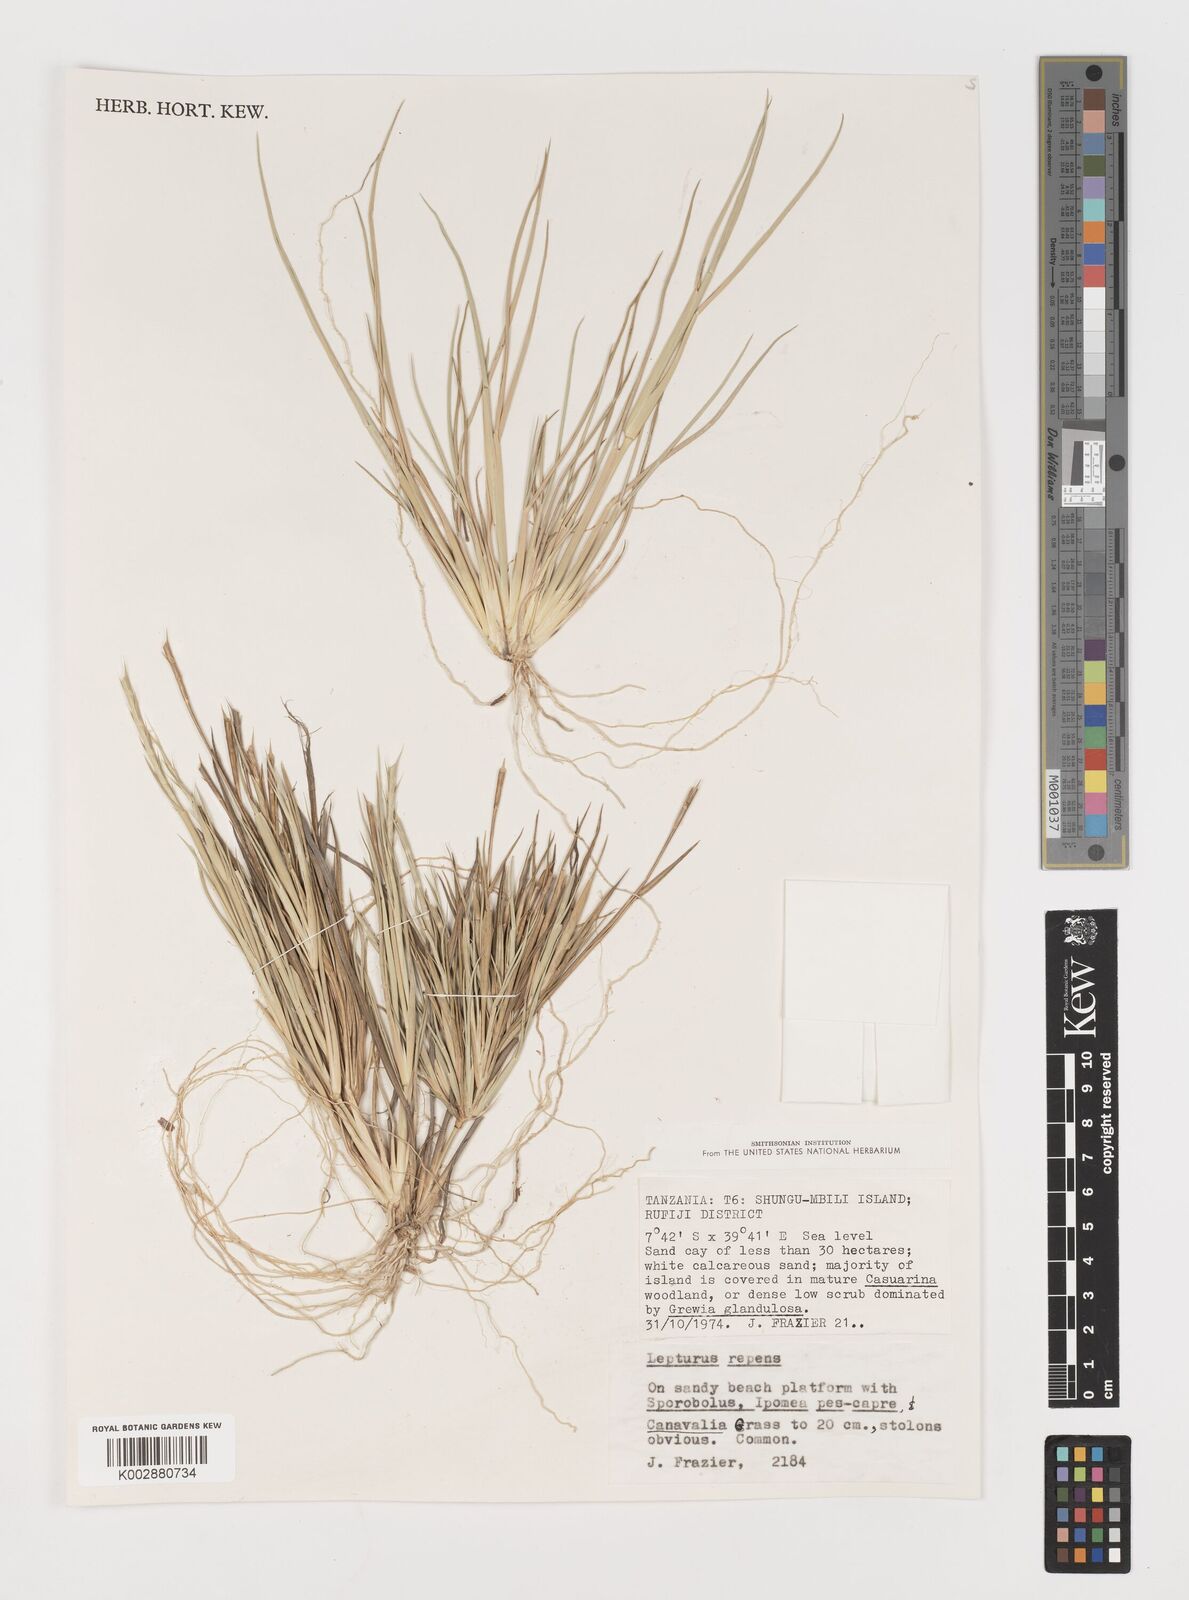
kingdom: Plantae
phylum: Tracheophyta
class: Liliopsida
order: Poales
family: Poaceae
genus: Lepturus
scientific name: Lepturus repens
